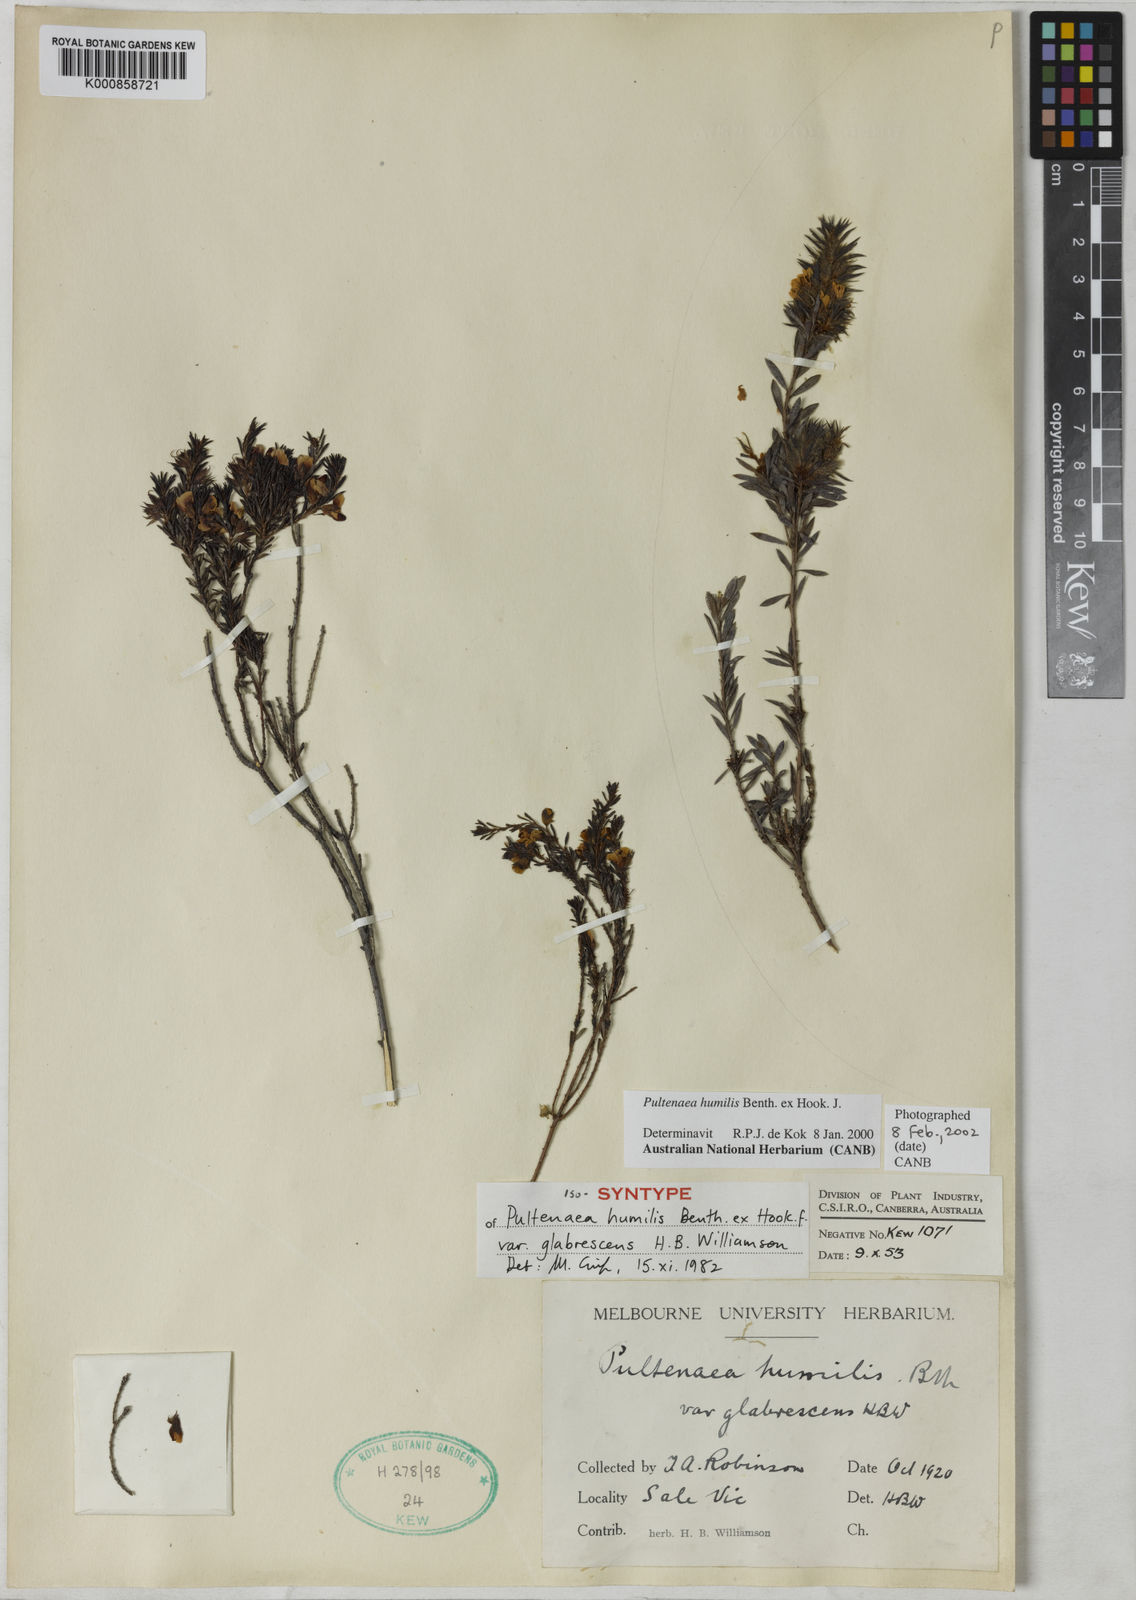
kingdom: Plantae
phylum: Tracheophyta
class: Magnoliopsida
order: Fabales
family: Fabaceae
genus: Pultenaea
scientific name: Pultenaea
